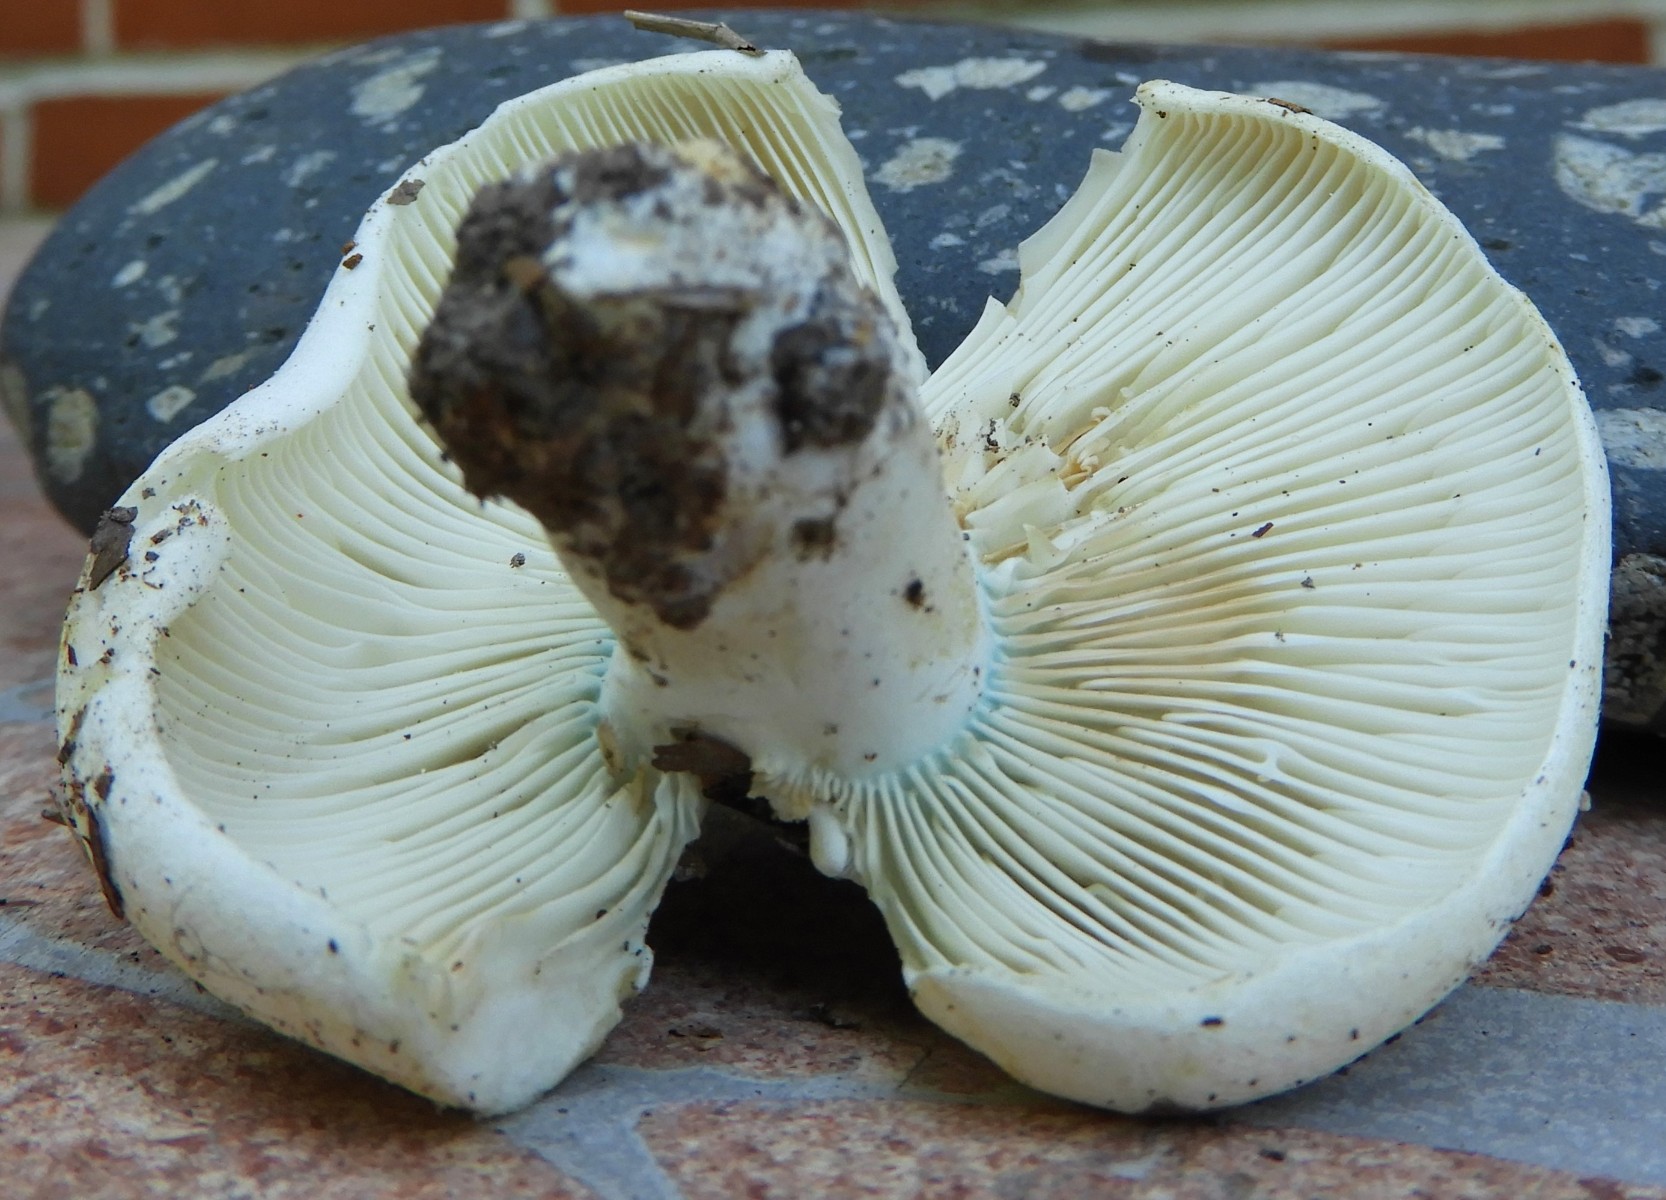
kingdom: Fungi
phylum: Basidiomycota
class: Agaricomycetes
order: Russulales
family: Russulaceae
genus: Russula
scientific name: Russula chloroides
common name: grønhalset tragt-skørhat
